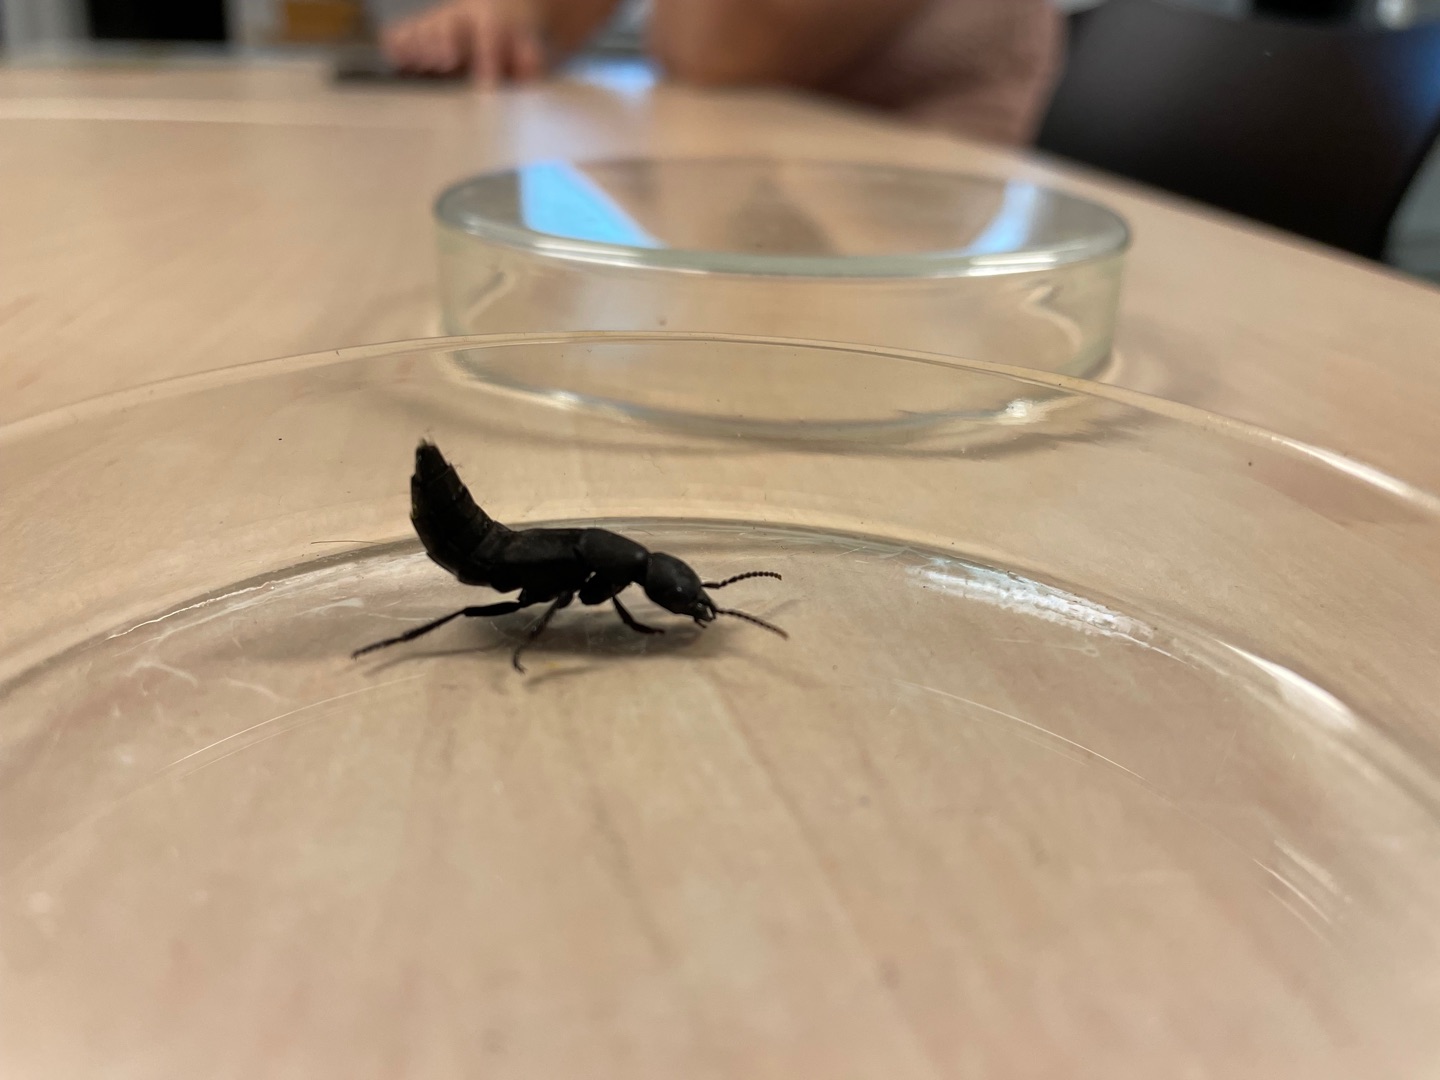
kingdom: Animalia
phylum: Arthropoda
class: Insecta
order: Coleoptera
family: Staphylinidae
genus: Ocypus
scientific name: Ocypus olens
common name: Stor rovbille
